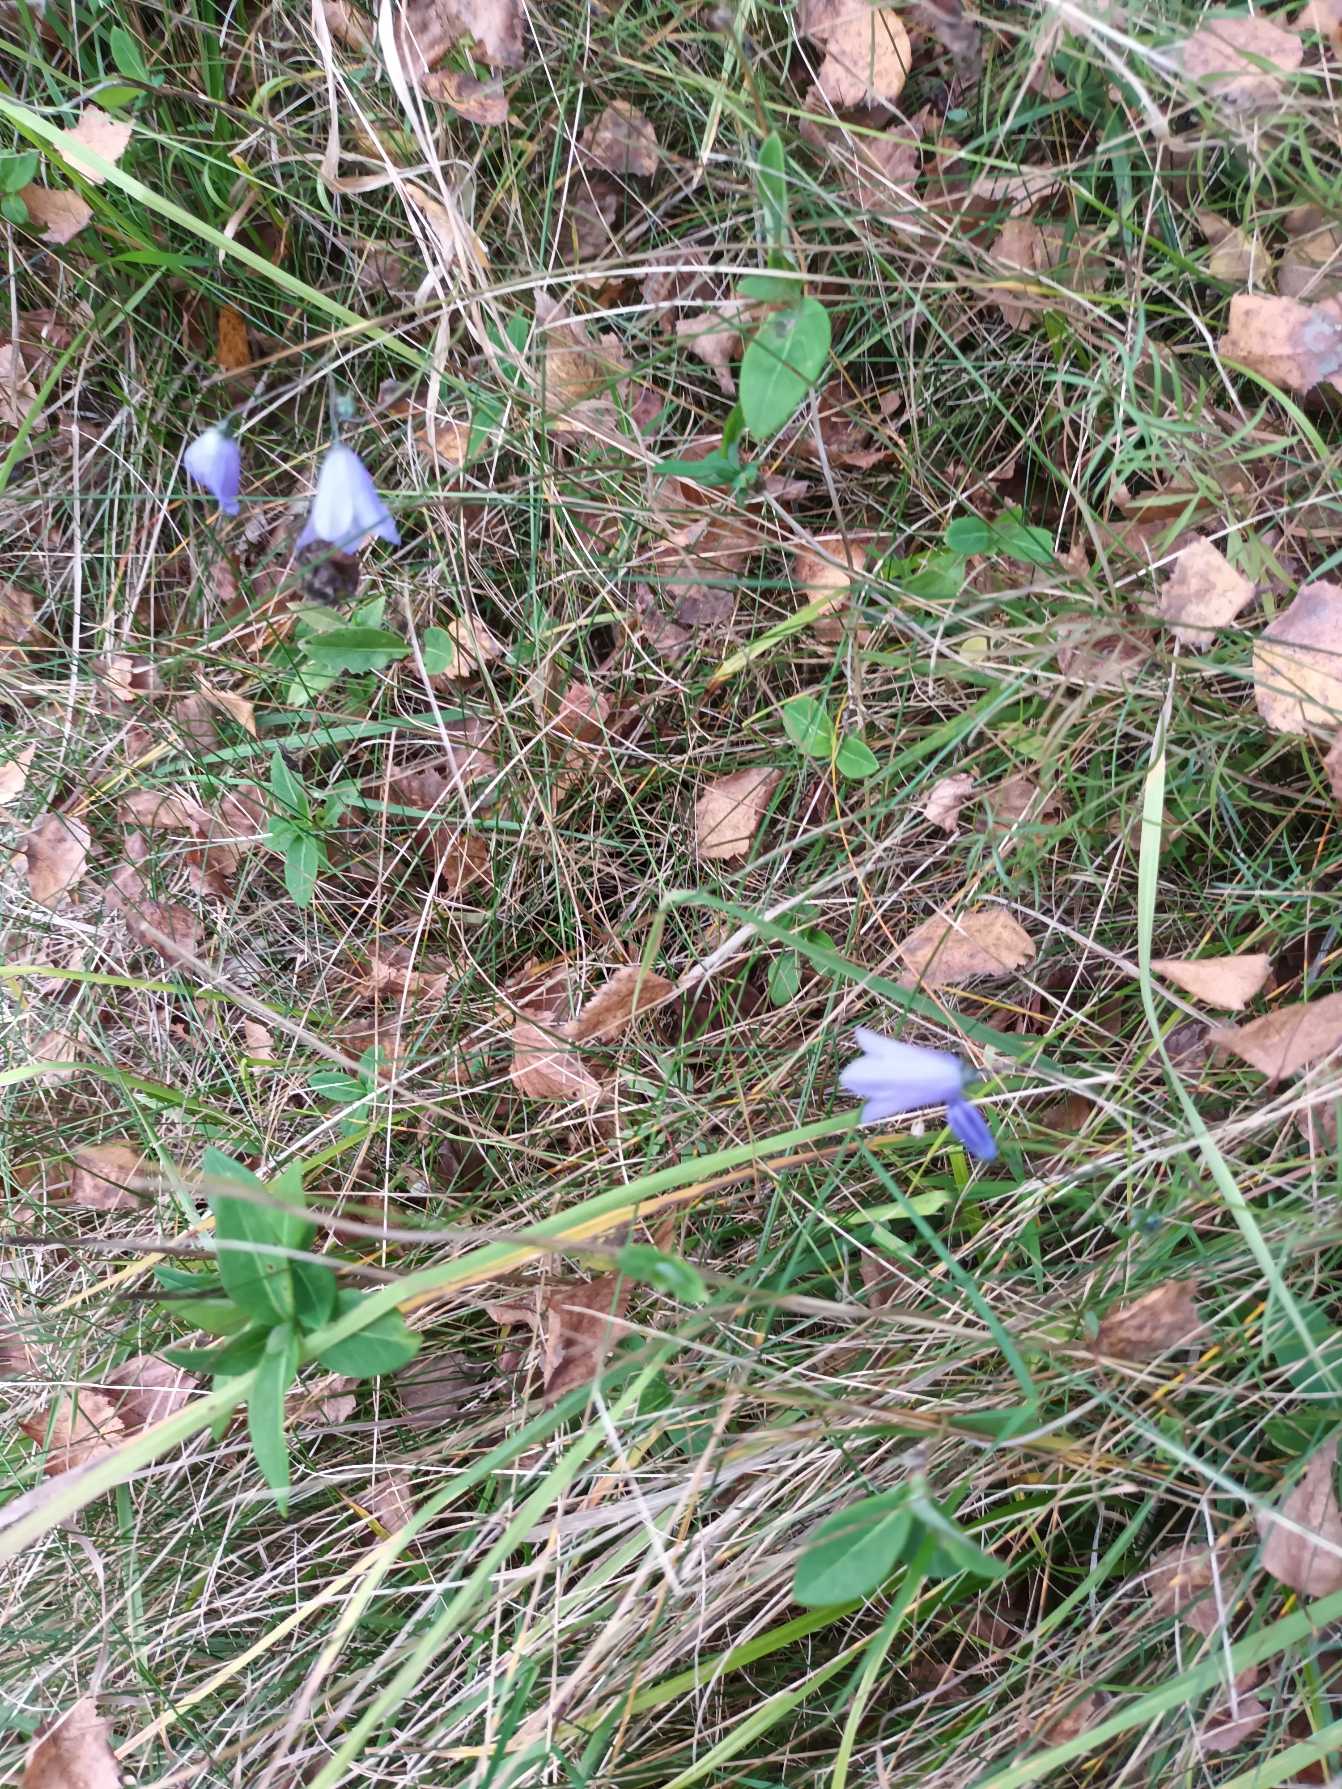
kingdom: Plantae
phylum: Tracheophyta
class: Magnoliopsida
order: Asterales
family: Campanulaceae
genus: Campanula
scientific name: Campanula rotundifolia
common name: Liden klokke
